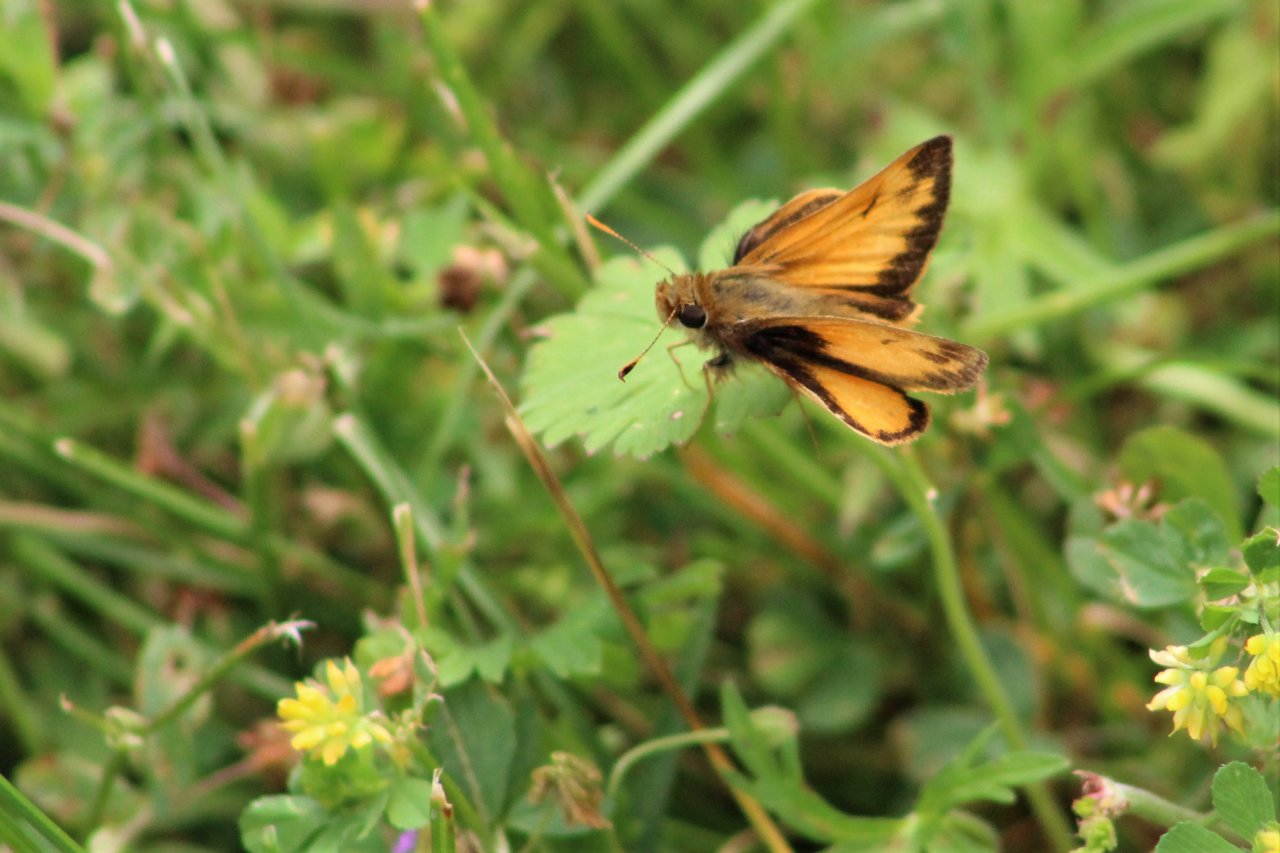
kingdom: Animalia
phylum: Arthropoda
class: Insecta
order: Lepidoptera
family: Hesperiidae
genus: Lon
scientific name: Lon zabulon
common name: Zabulon Skipper
